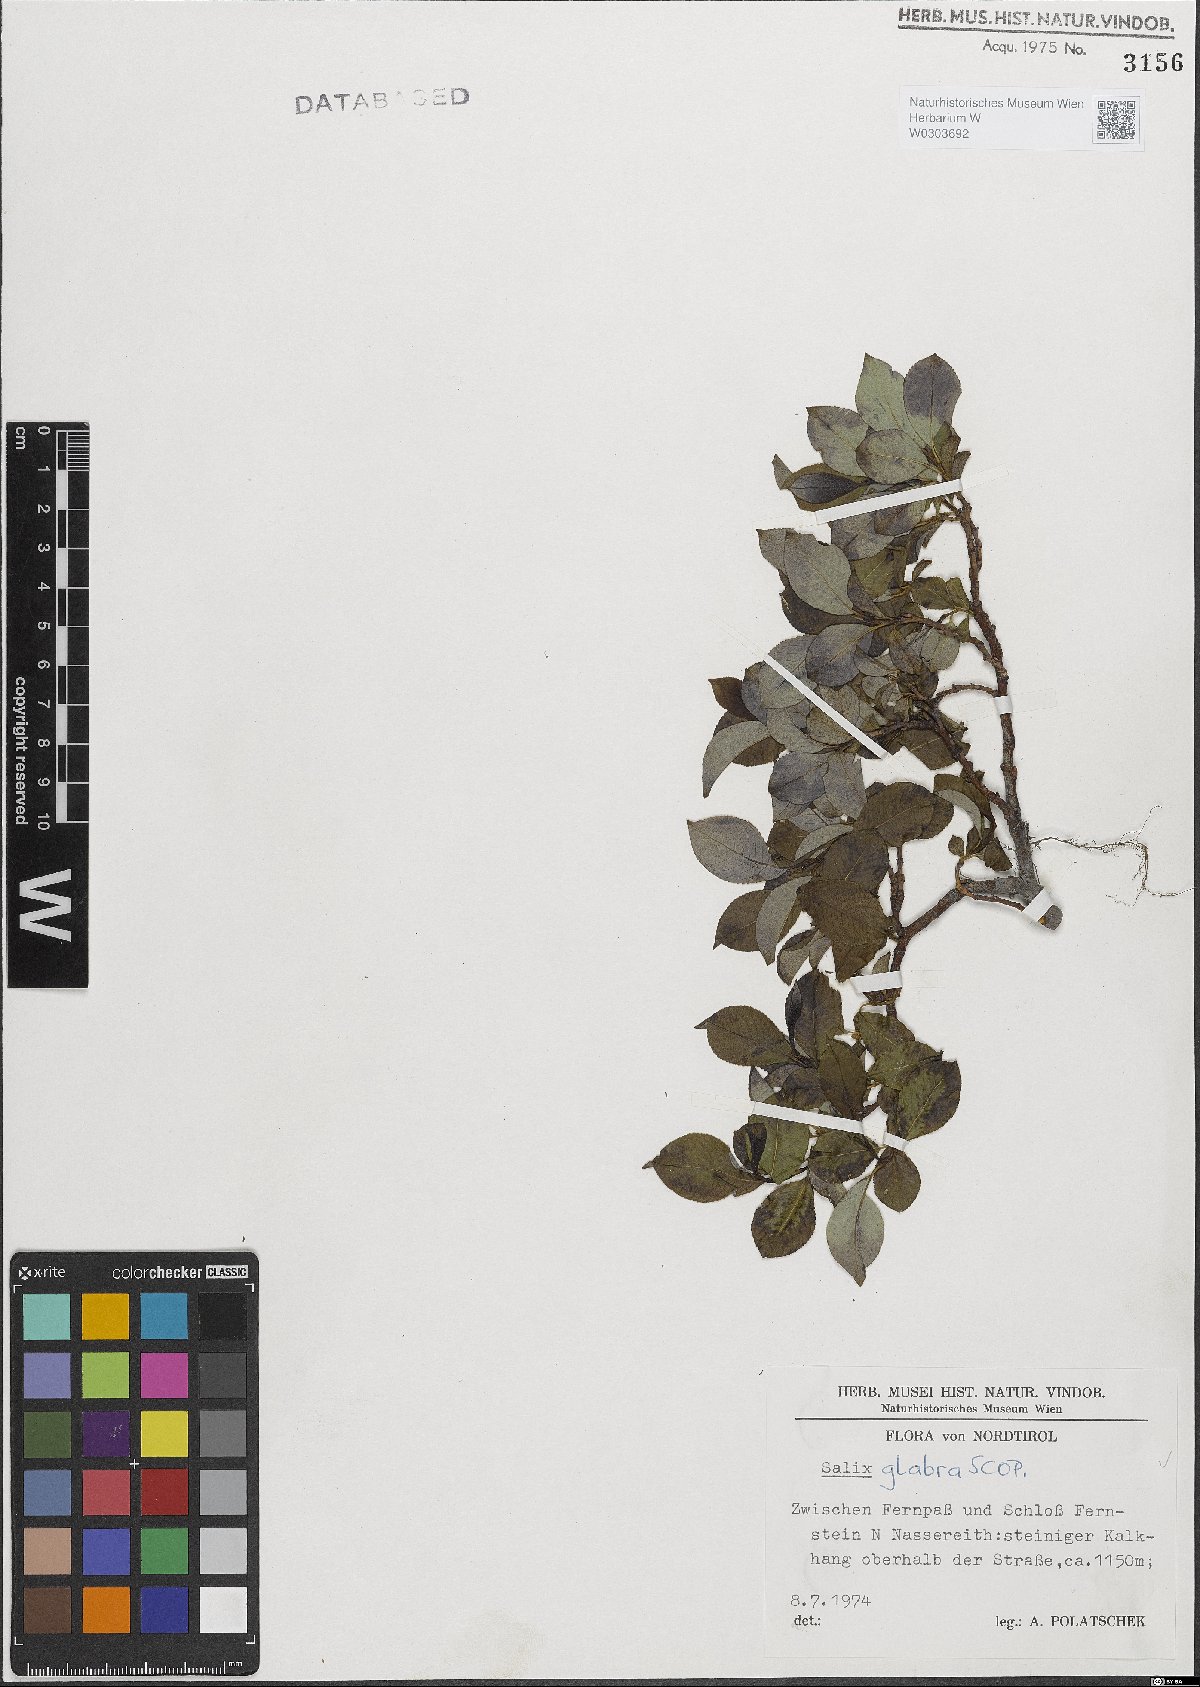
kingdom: Plantae
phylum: Tracheophyta
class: Magnoliopsida
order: Malpighiales
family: Salicaceae
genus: Salix
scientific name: Salix glabra
